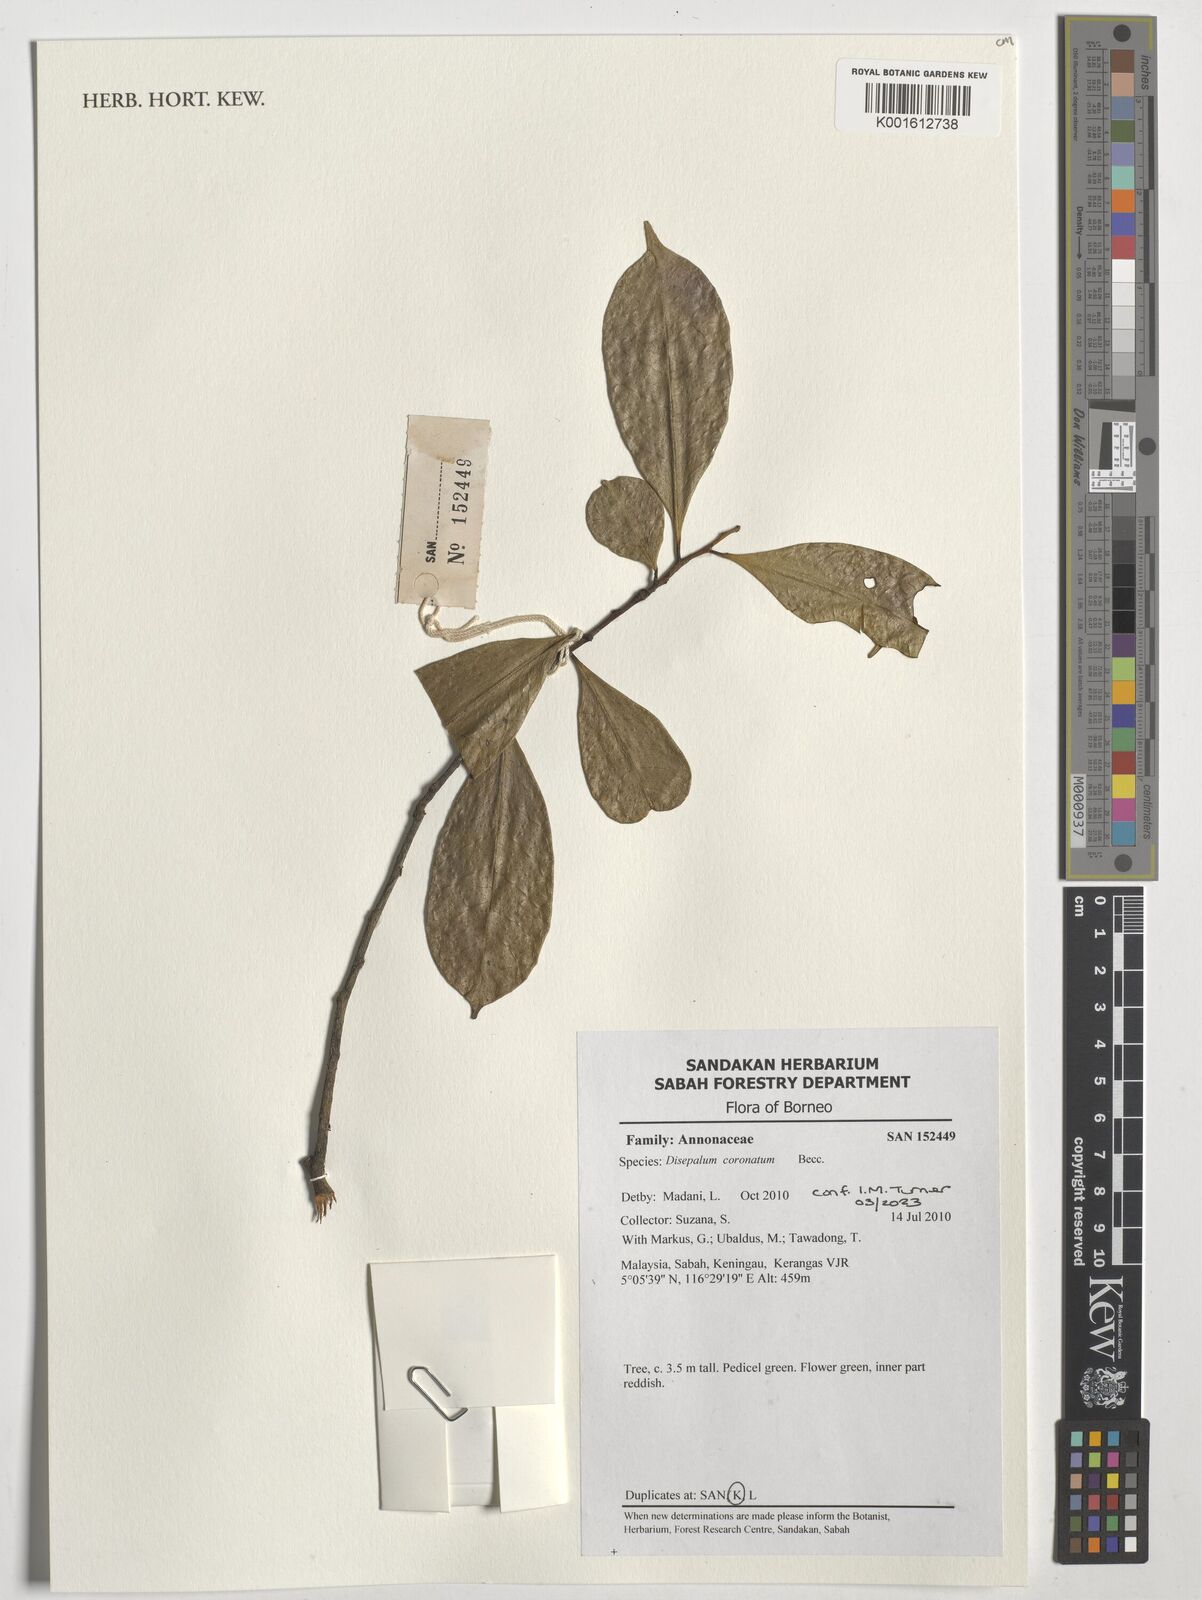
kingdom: Plantae
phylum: Tracheophyta
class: Magnoliopsida
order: Magnoliales
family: Annonaceae
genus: Disepalum
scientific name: Disepalum coronatum
